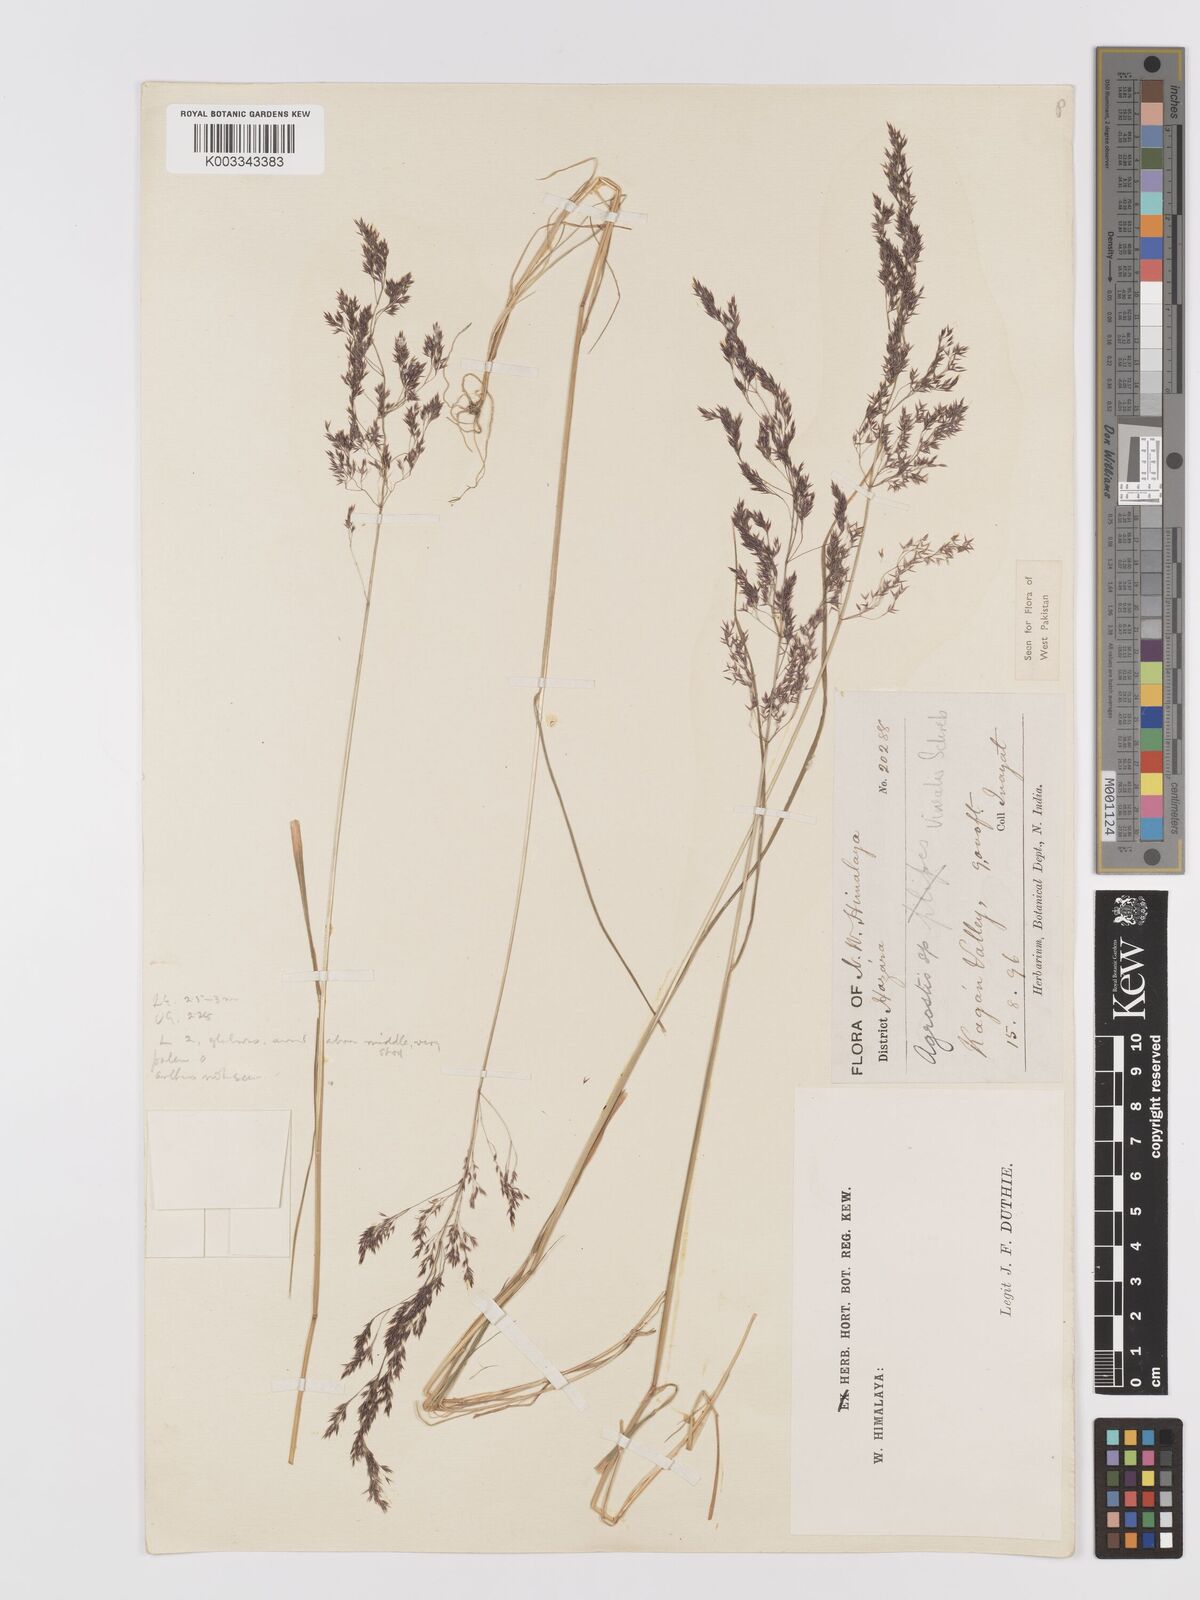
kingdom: Plantae
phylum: Tracheophyta
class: Liliopsida
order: Poales
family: Poaceae
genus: Agrostis
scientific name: Agrostis vinealis
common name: Brown bent
